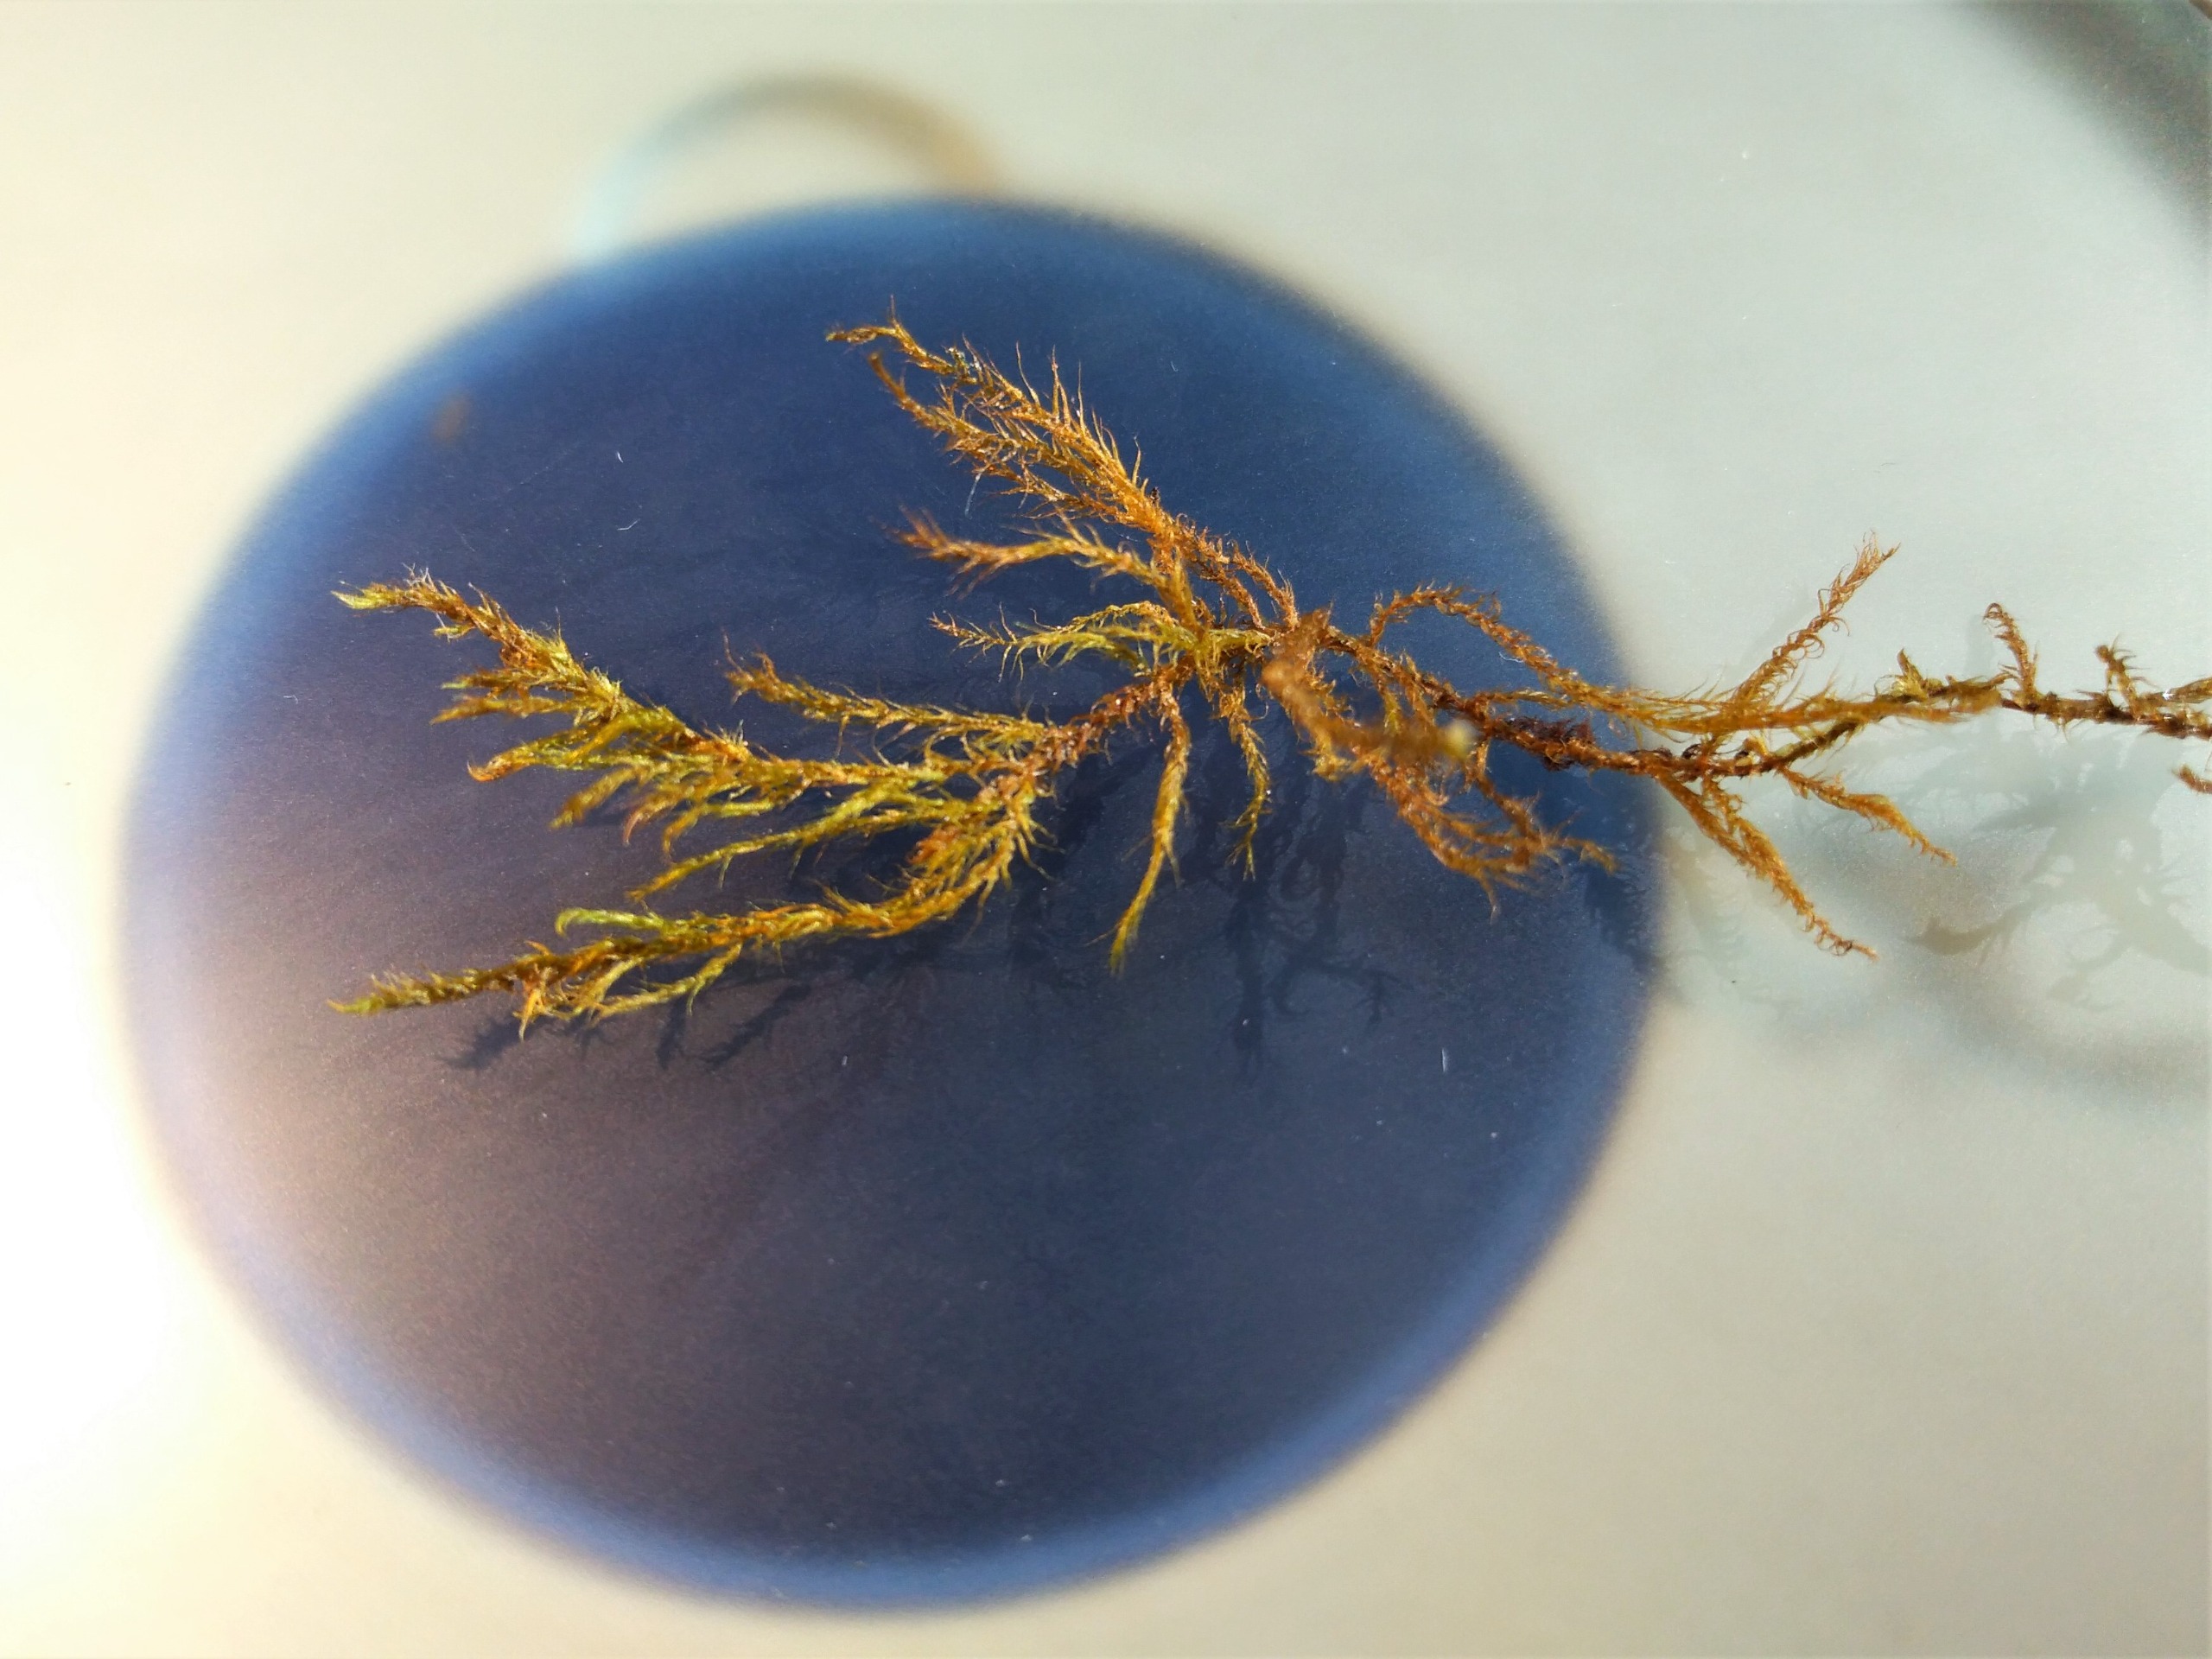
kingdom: Plantae
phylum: Bryophyta
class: Bryopsida
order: Hypnales
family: Amblystegiaceae
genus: Kandaea
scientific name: Kandaea elodes
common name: Smalbladet guldstjernemos
